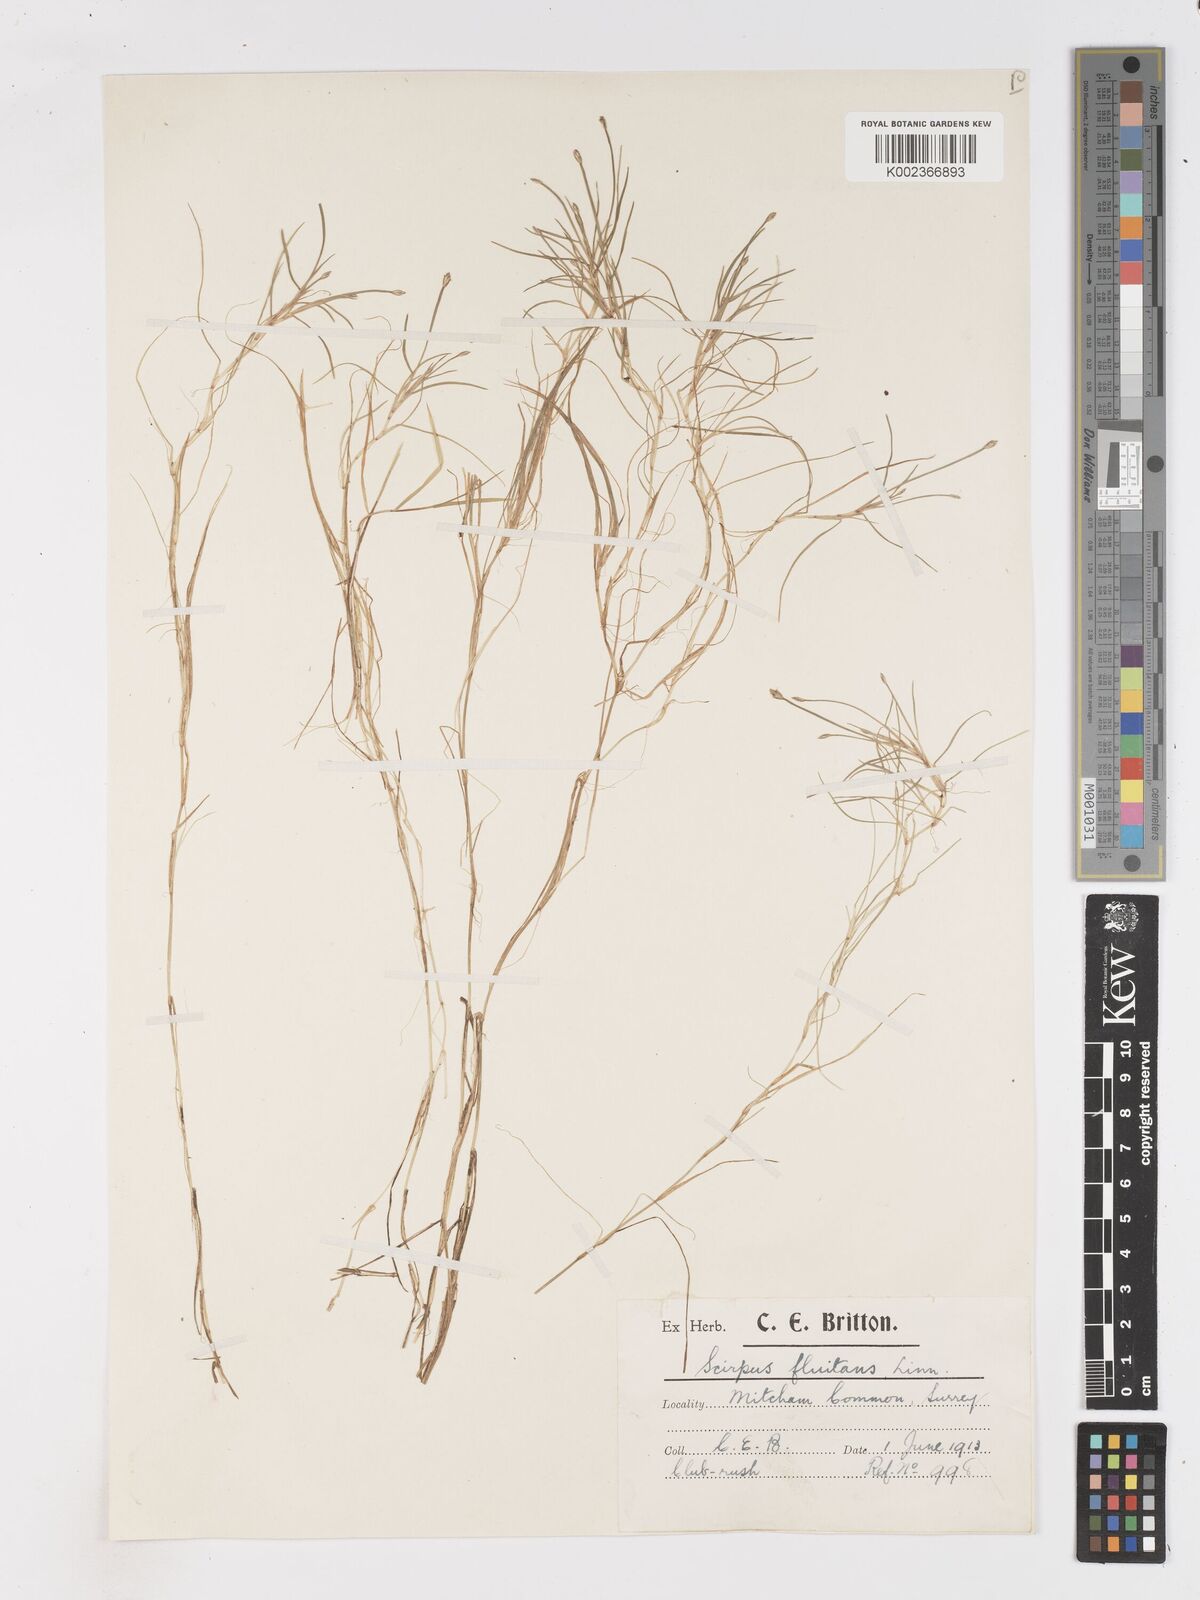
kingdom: Plantae
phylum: Tracheophyta
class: Liliopsida
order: Poales
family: Cyperaceae
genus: Isolepis
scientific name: Isolepis fluitans
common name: Floating club-rush
